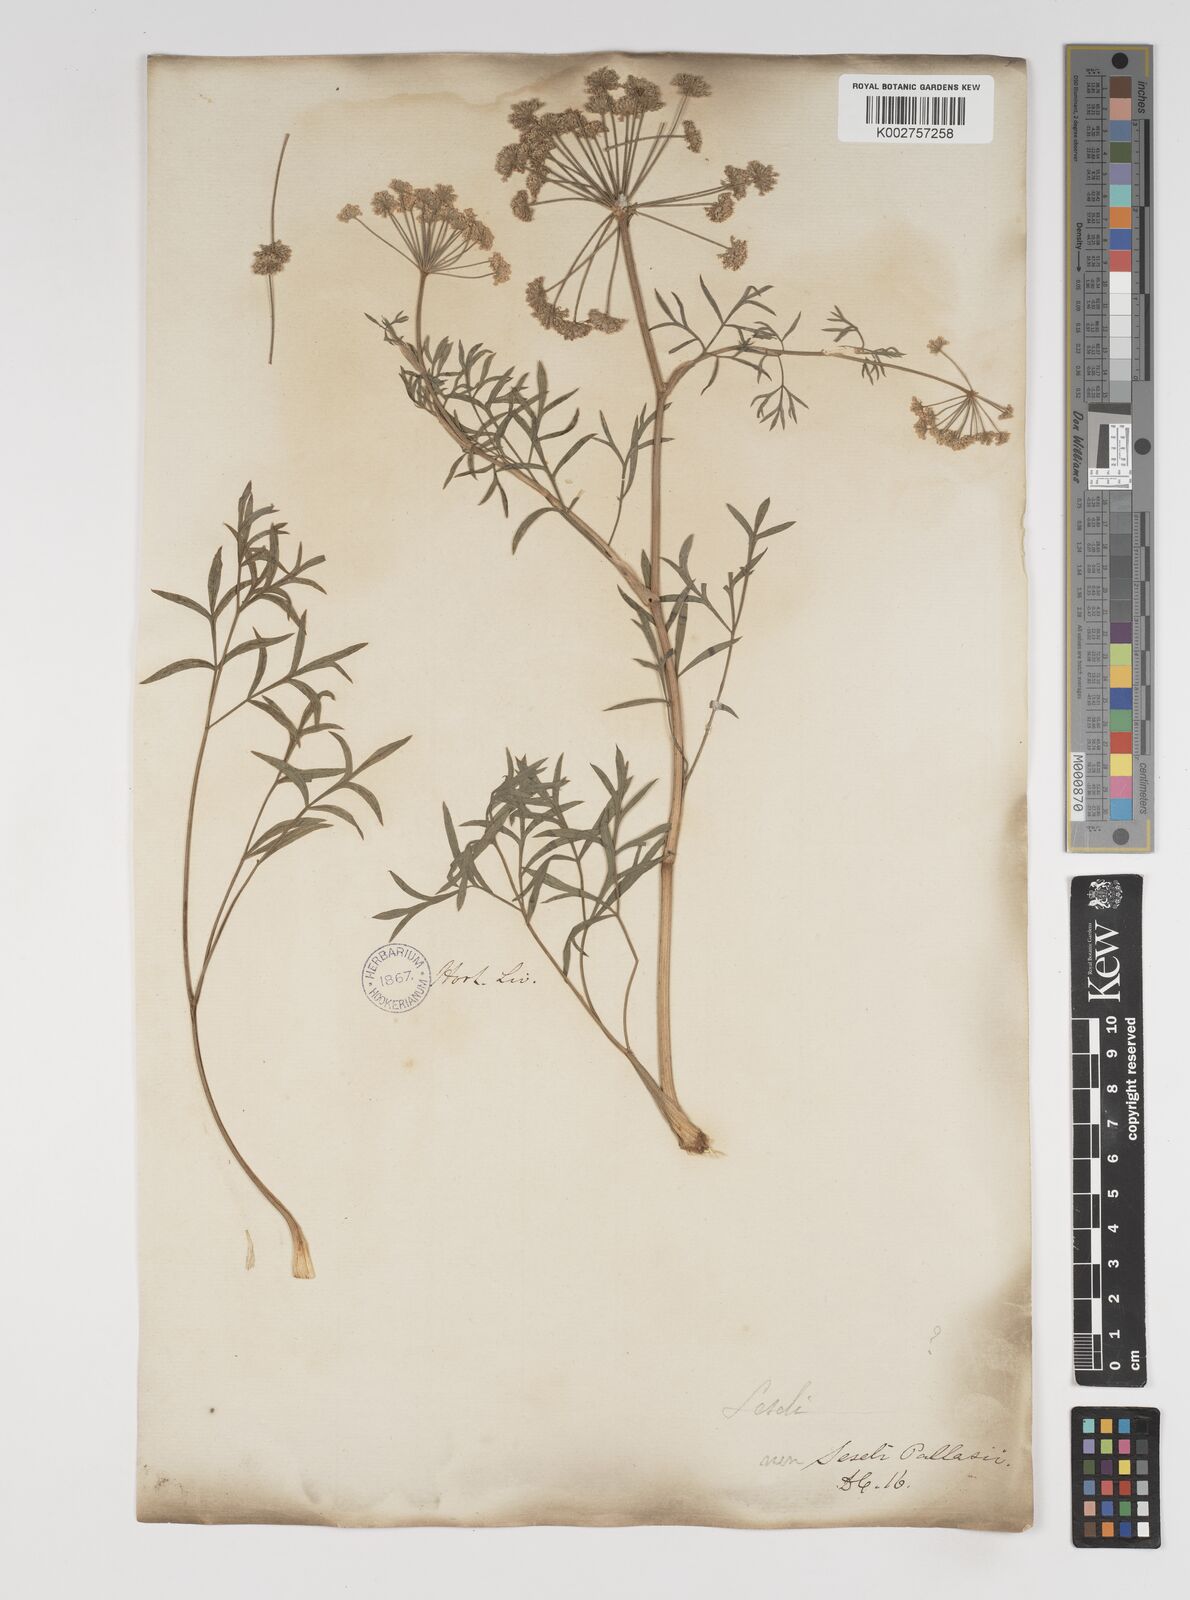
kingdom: Plantae
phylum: Tracheophyta
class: Magnoliopsida
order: Apiales
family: Apiaceae
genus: Seseli
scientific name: Seseli pallasii
